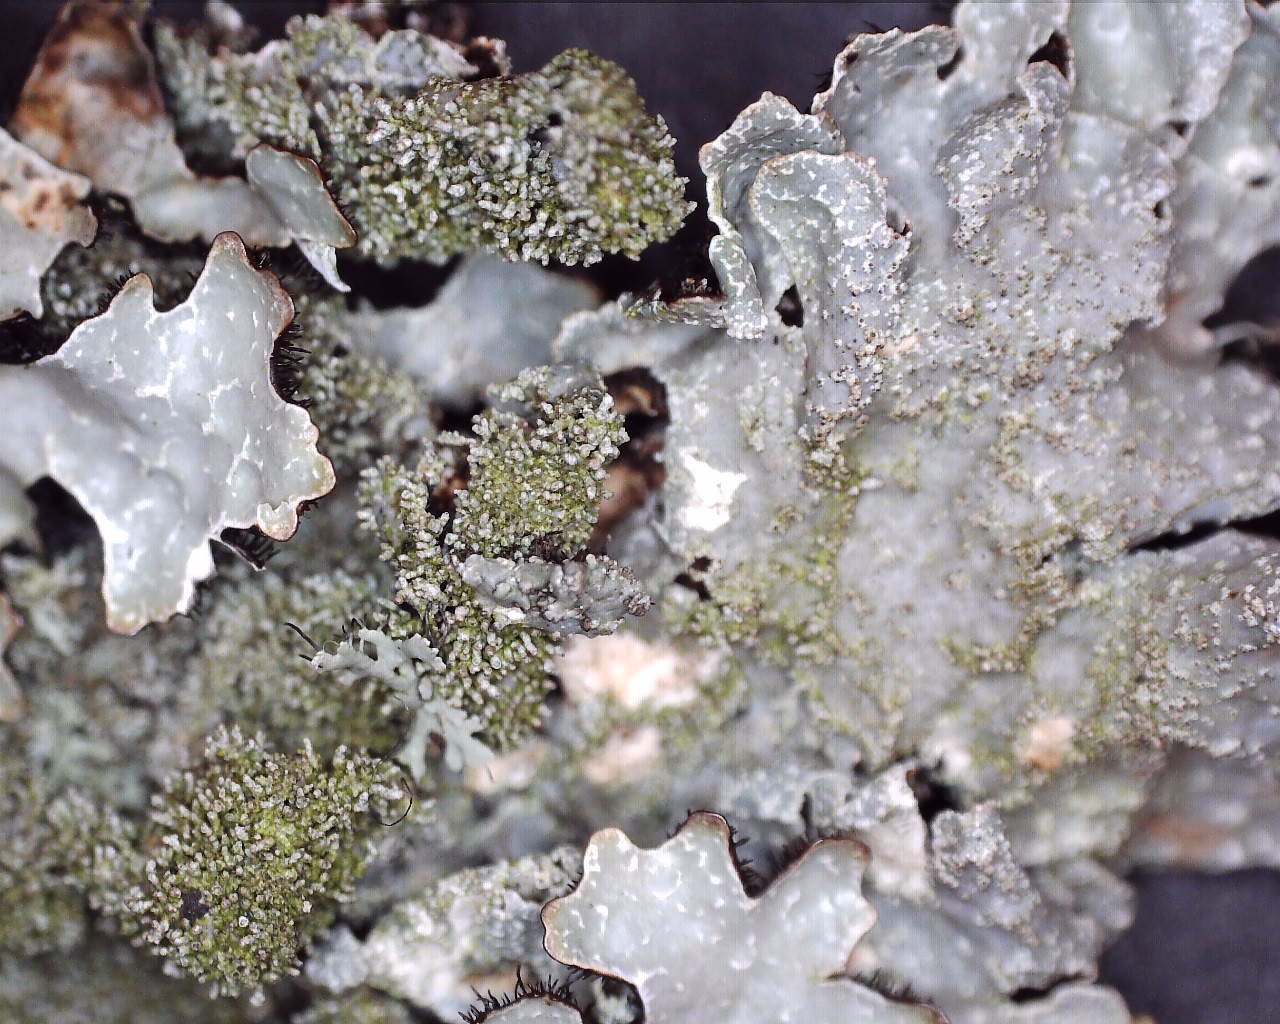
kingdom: Fungi
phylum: Ascomycota
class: Lecanoromycetes
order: Lecanorales
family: Parmeliaceae
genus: Parmelia
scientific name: Parmelia saxatilis
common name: farve-skållav
